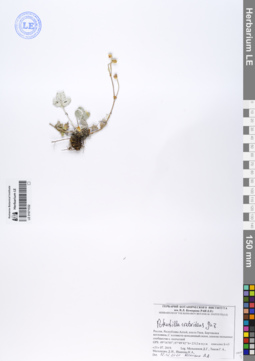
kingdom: Plantae
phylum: Tracheophyta
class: Magnoliopsida
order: Rosales
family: Rosaceae
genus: Potentilla
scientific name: Potentilla crebridens
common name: Congested cinquefoil
